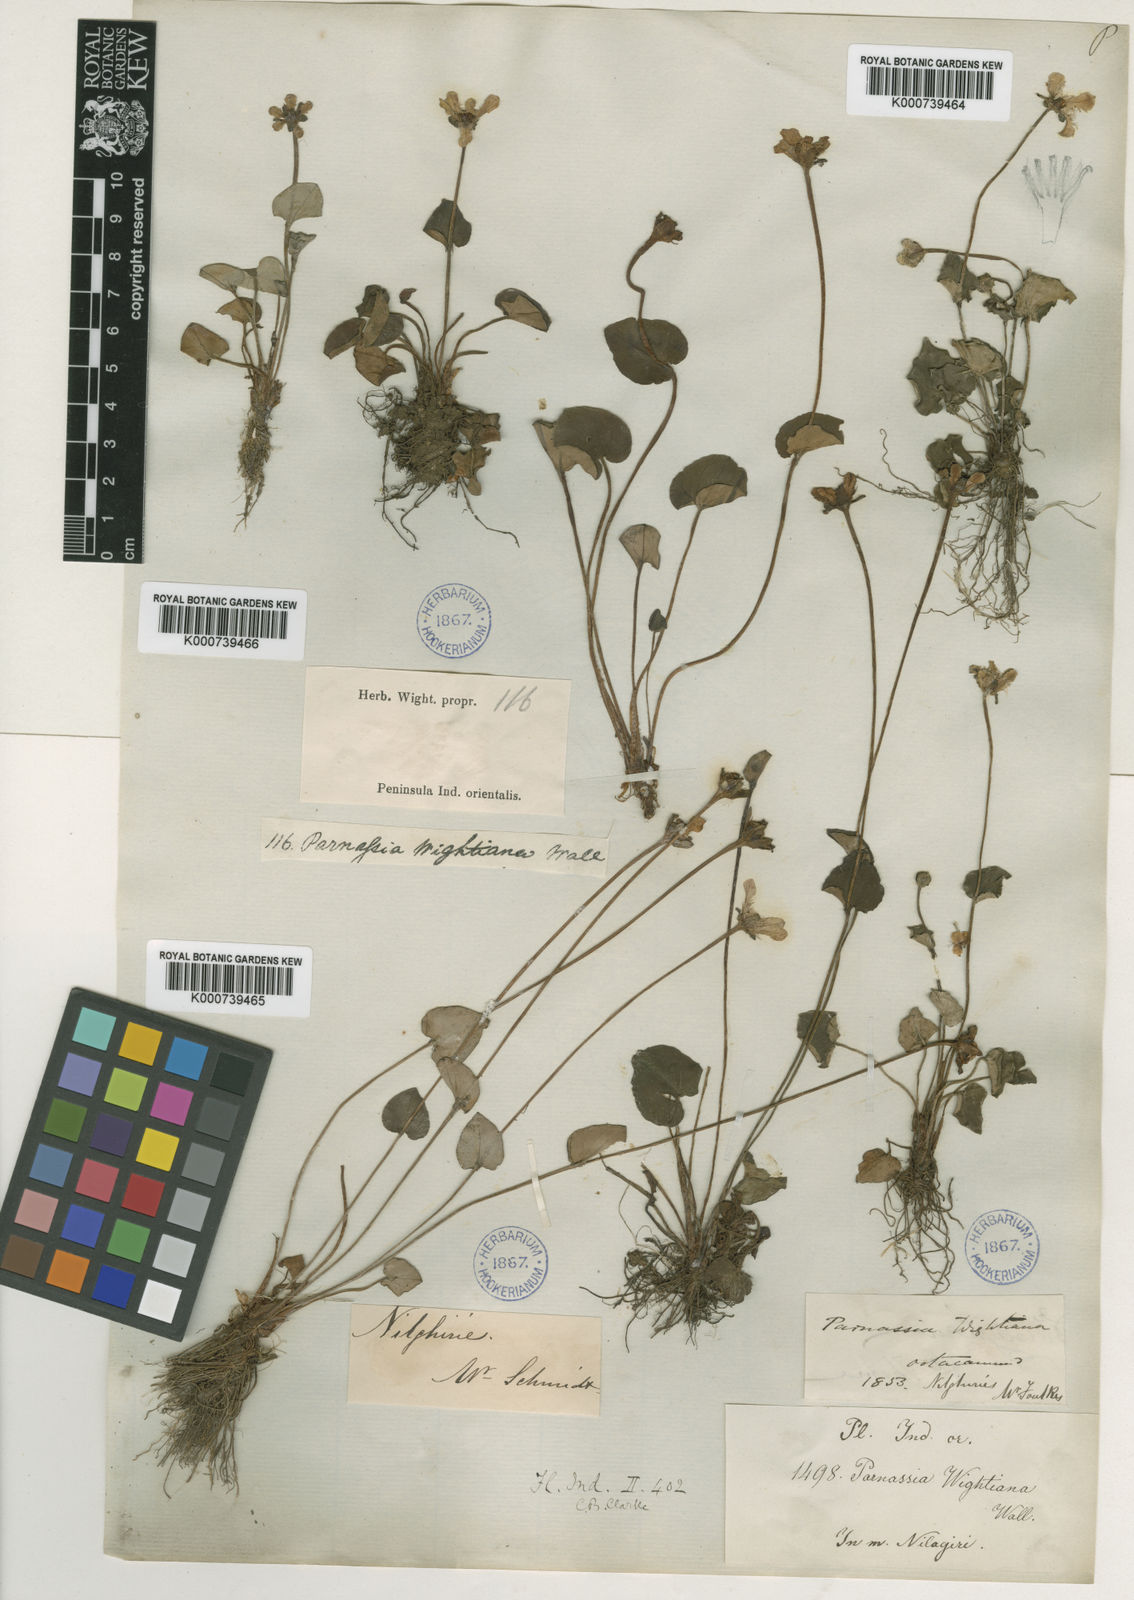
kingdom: Plantae
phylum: Tracheophyta
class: Magnoliopsida
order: Celastrales
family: Parnassiaceae
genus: Parnassia
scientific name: Parnassia
